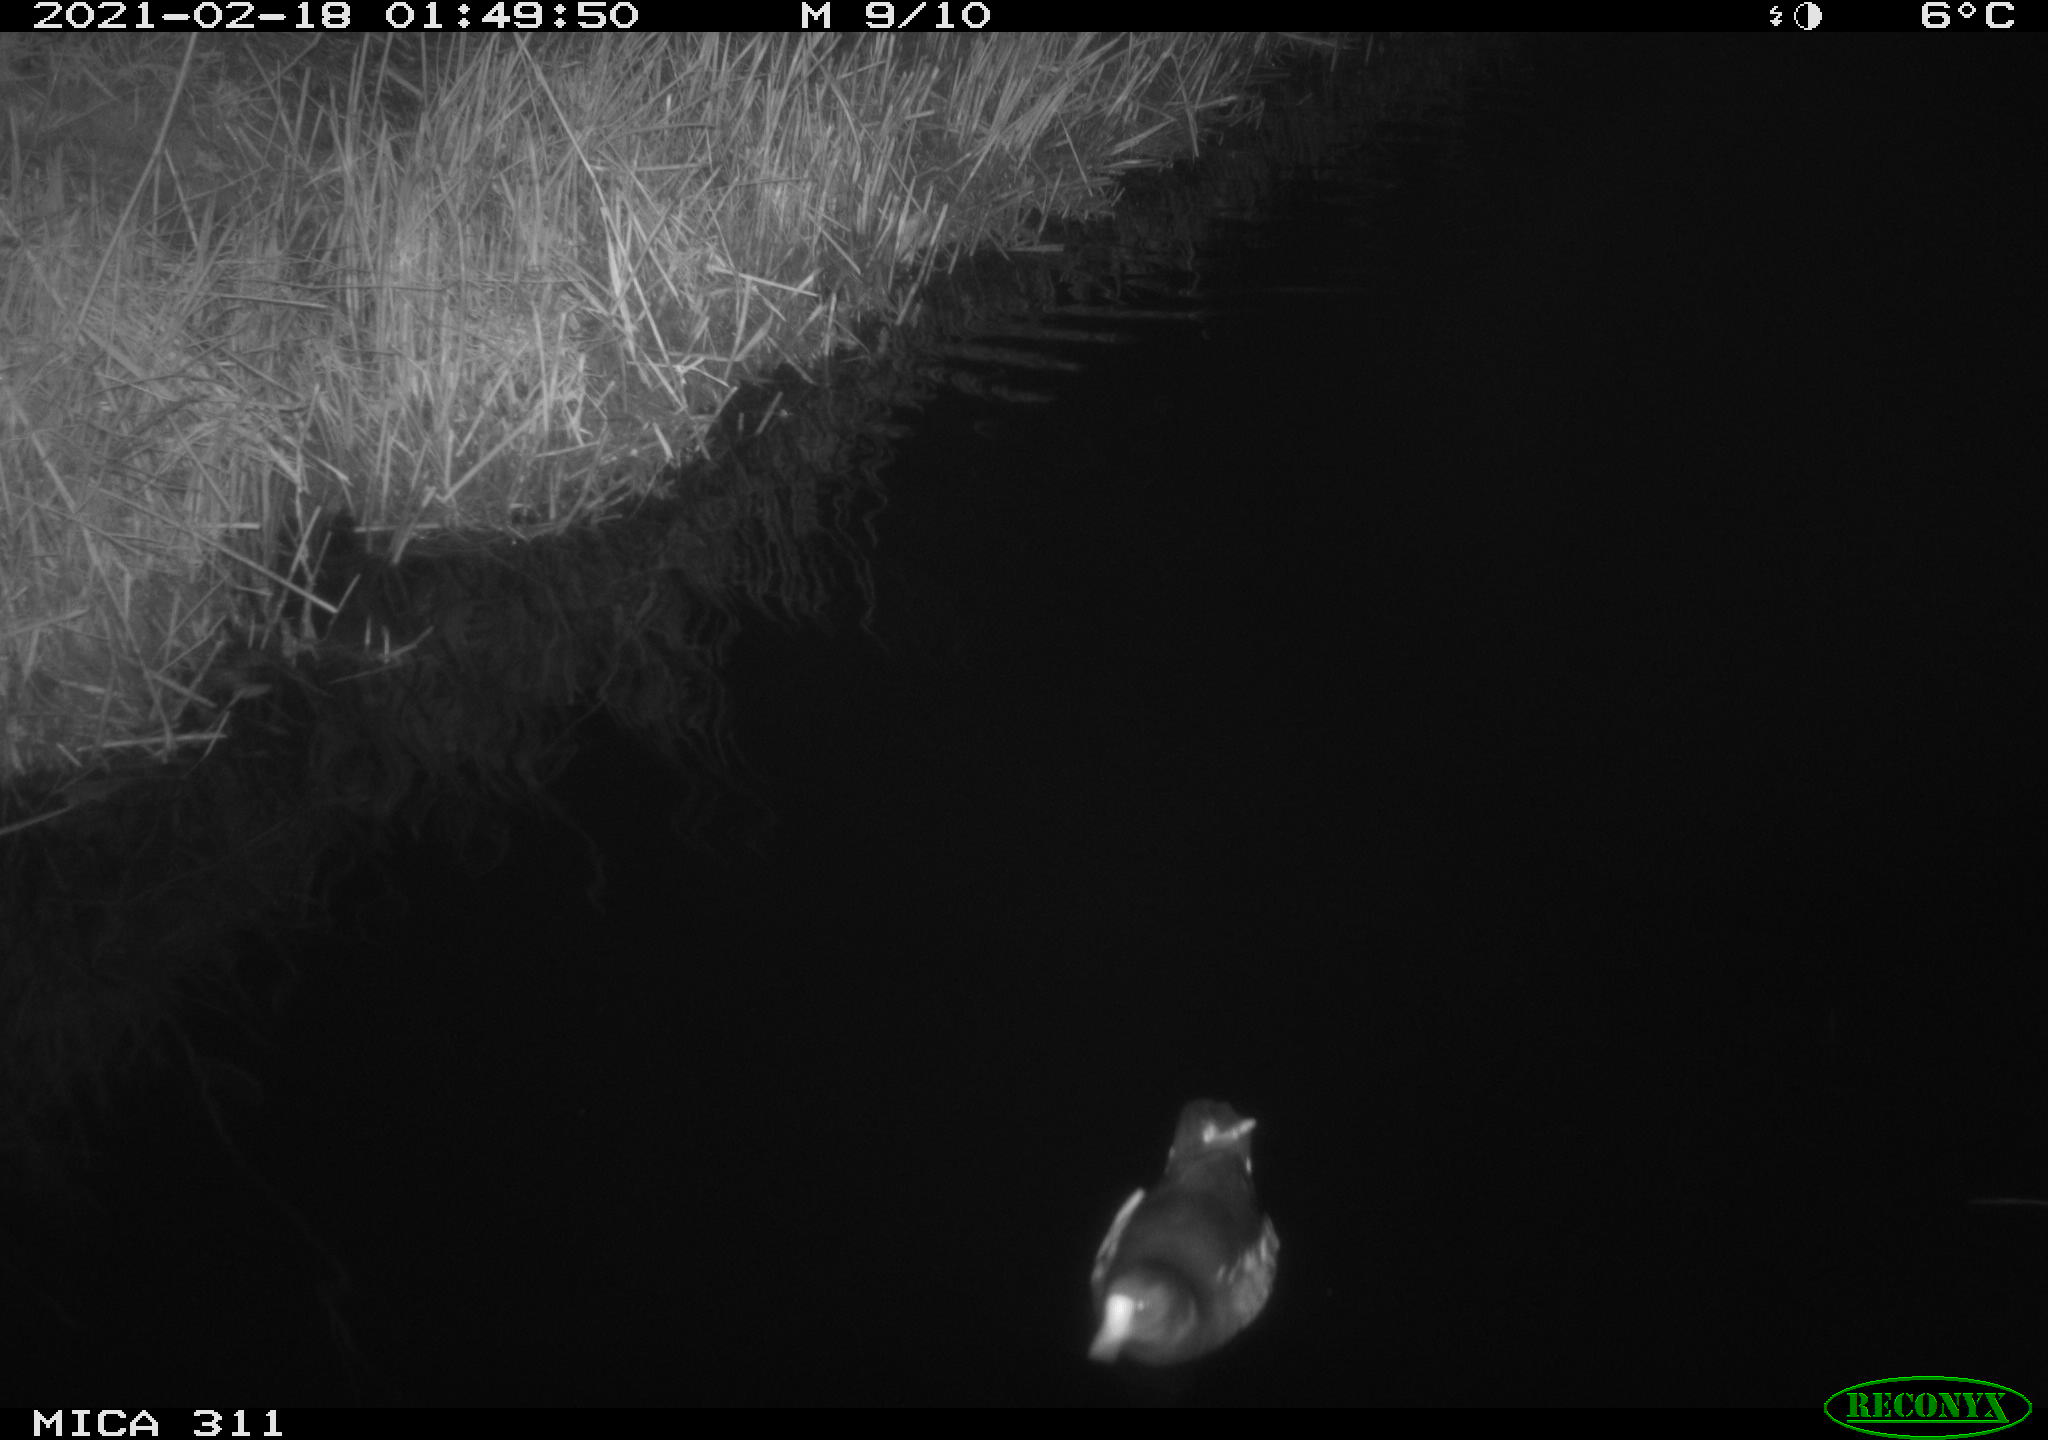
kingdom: Animalia
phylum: Chordata
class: Aves
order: Gruiformes
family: Rallidae
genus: Gallinula
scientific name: Gallinula chloropus
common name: Common moorhen
